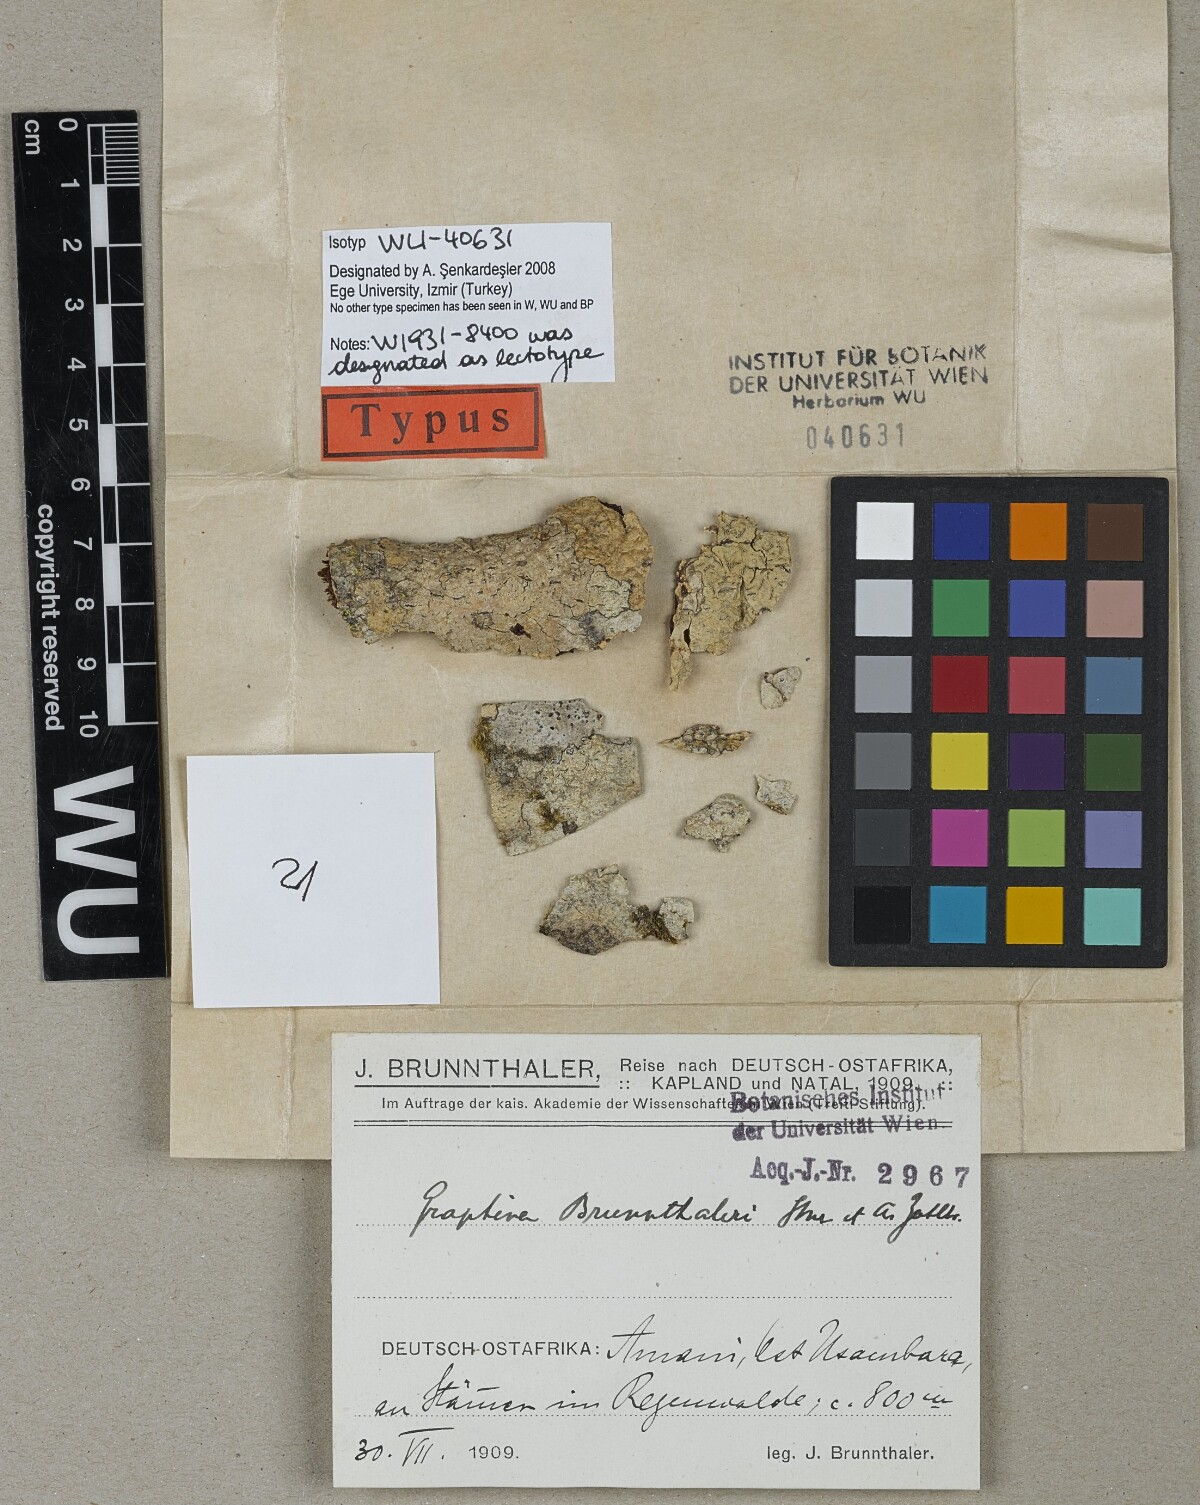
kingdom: Fungi
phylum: Ascomycota
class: Lecanoromycetes
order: Ostropales
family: Graphidaceae
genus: Graphina
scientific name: Graphina
